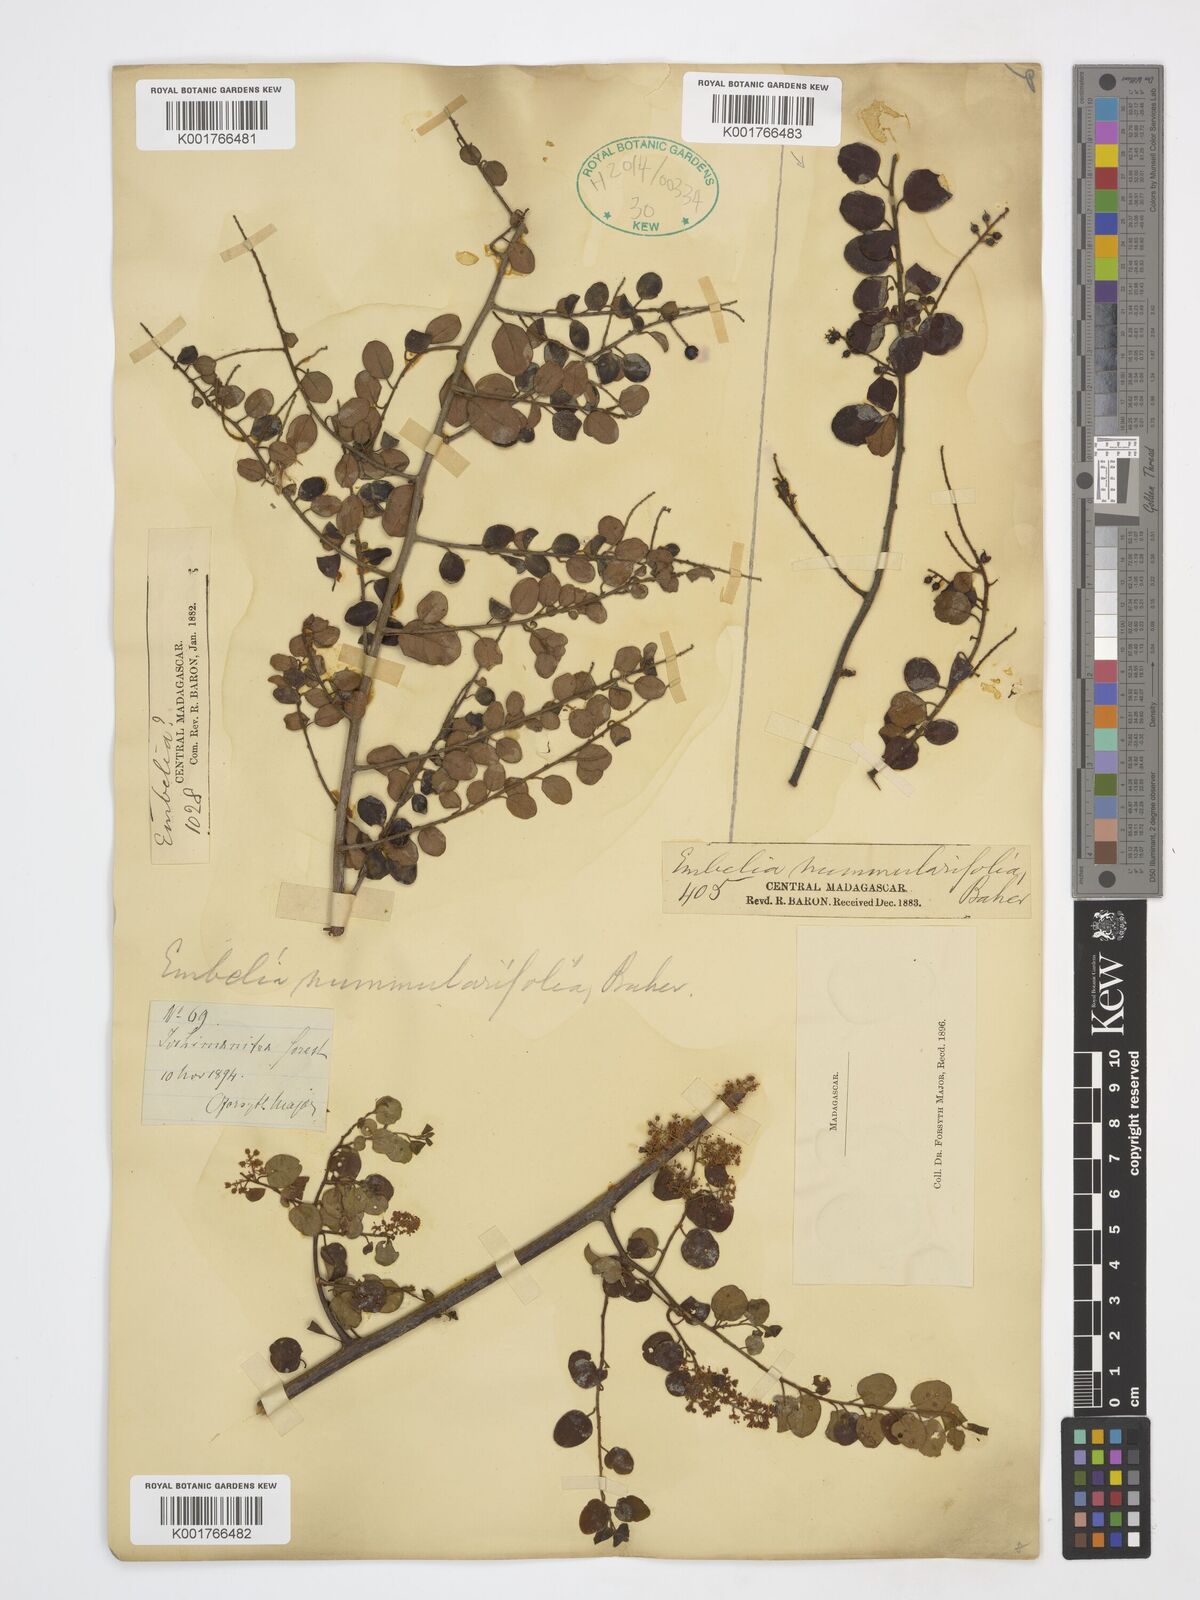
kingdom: Plantae
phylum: Tracheophyta
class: Magnoliopsida
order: Ericales
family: Primulaceae
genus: Embelia
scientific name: Embelia nummulariifolia
